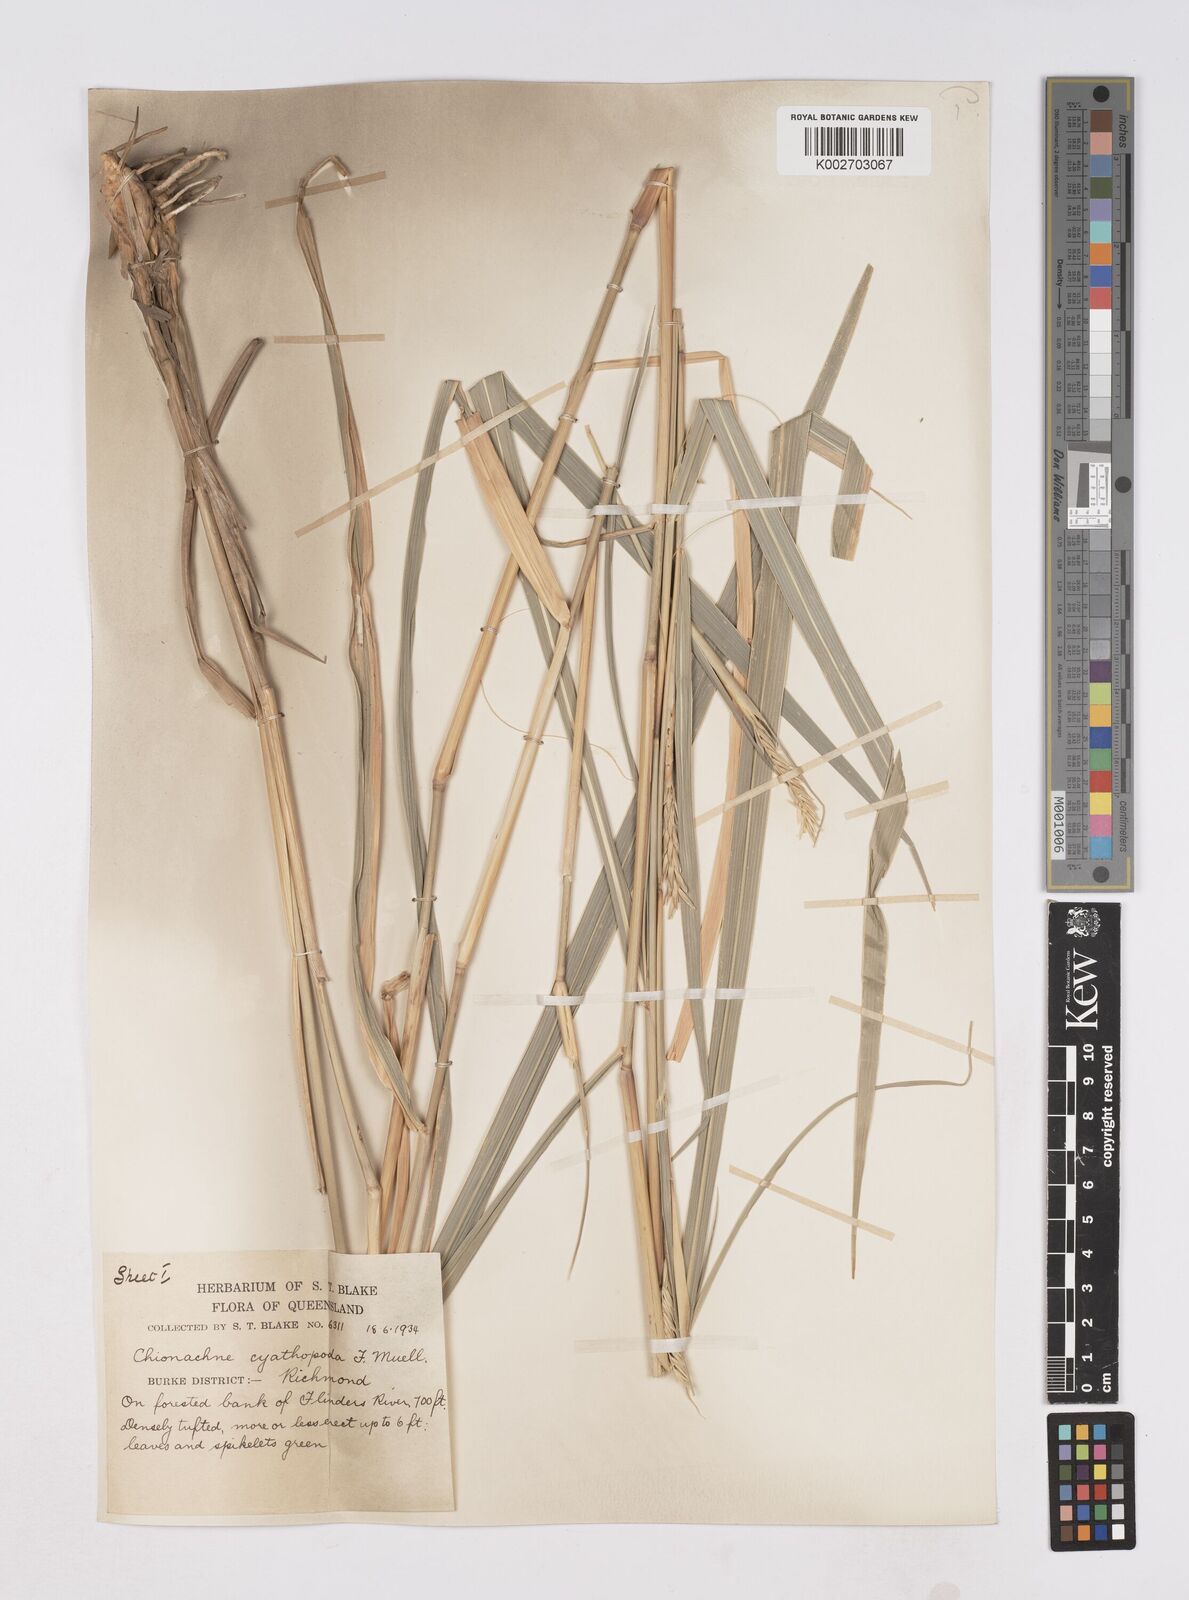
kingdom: Plantae
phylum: Tracheophyta
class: Liliopsida
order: Poales
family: Poaceae
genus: Polytoca
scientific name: Polytoca cyathopoda
